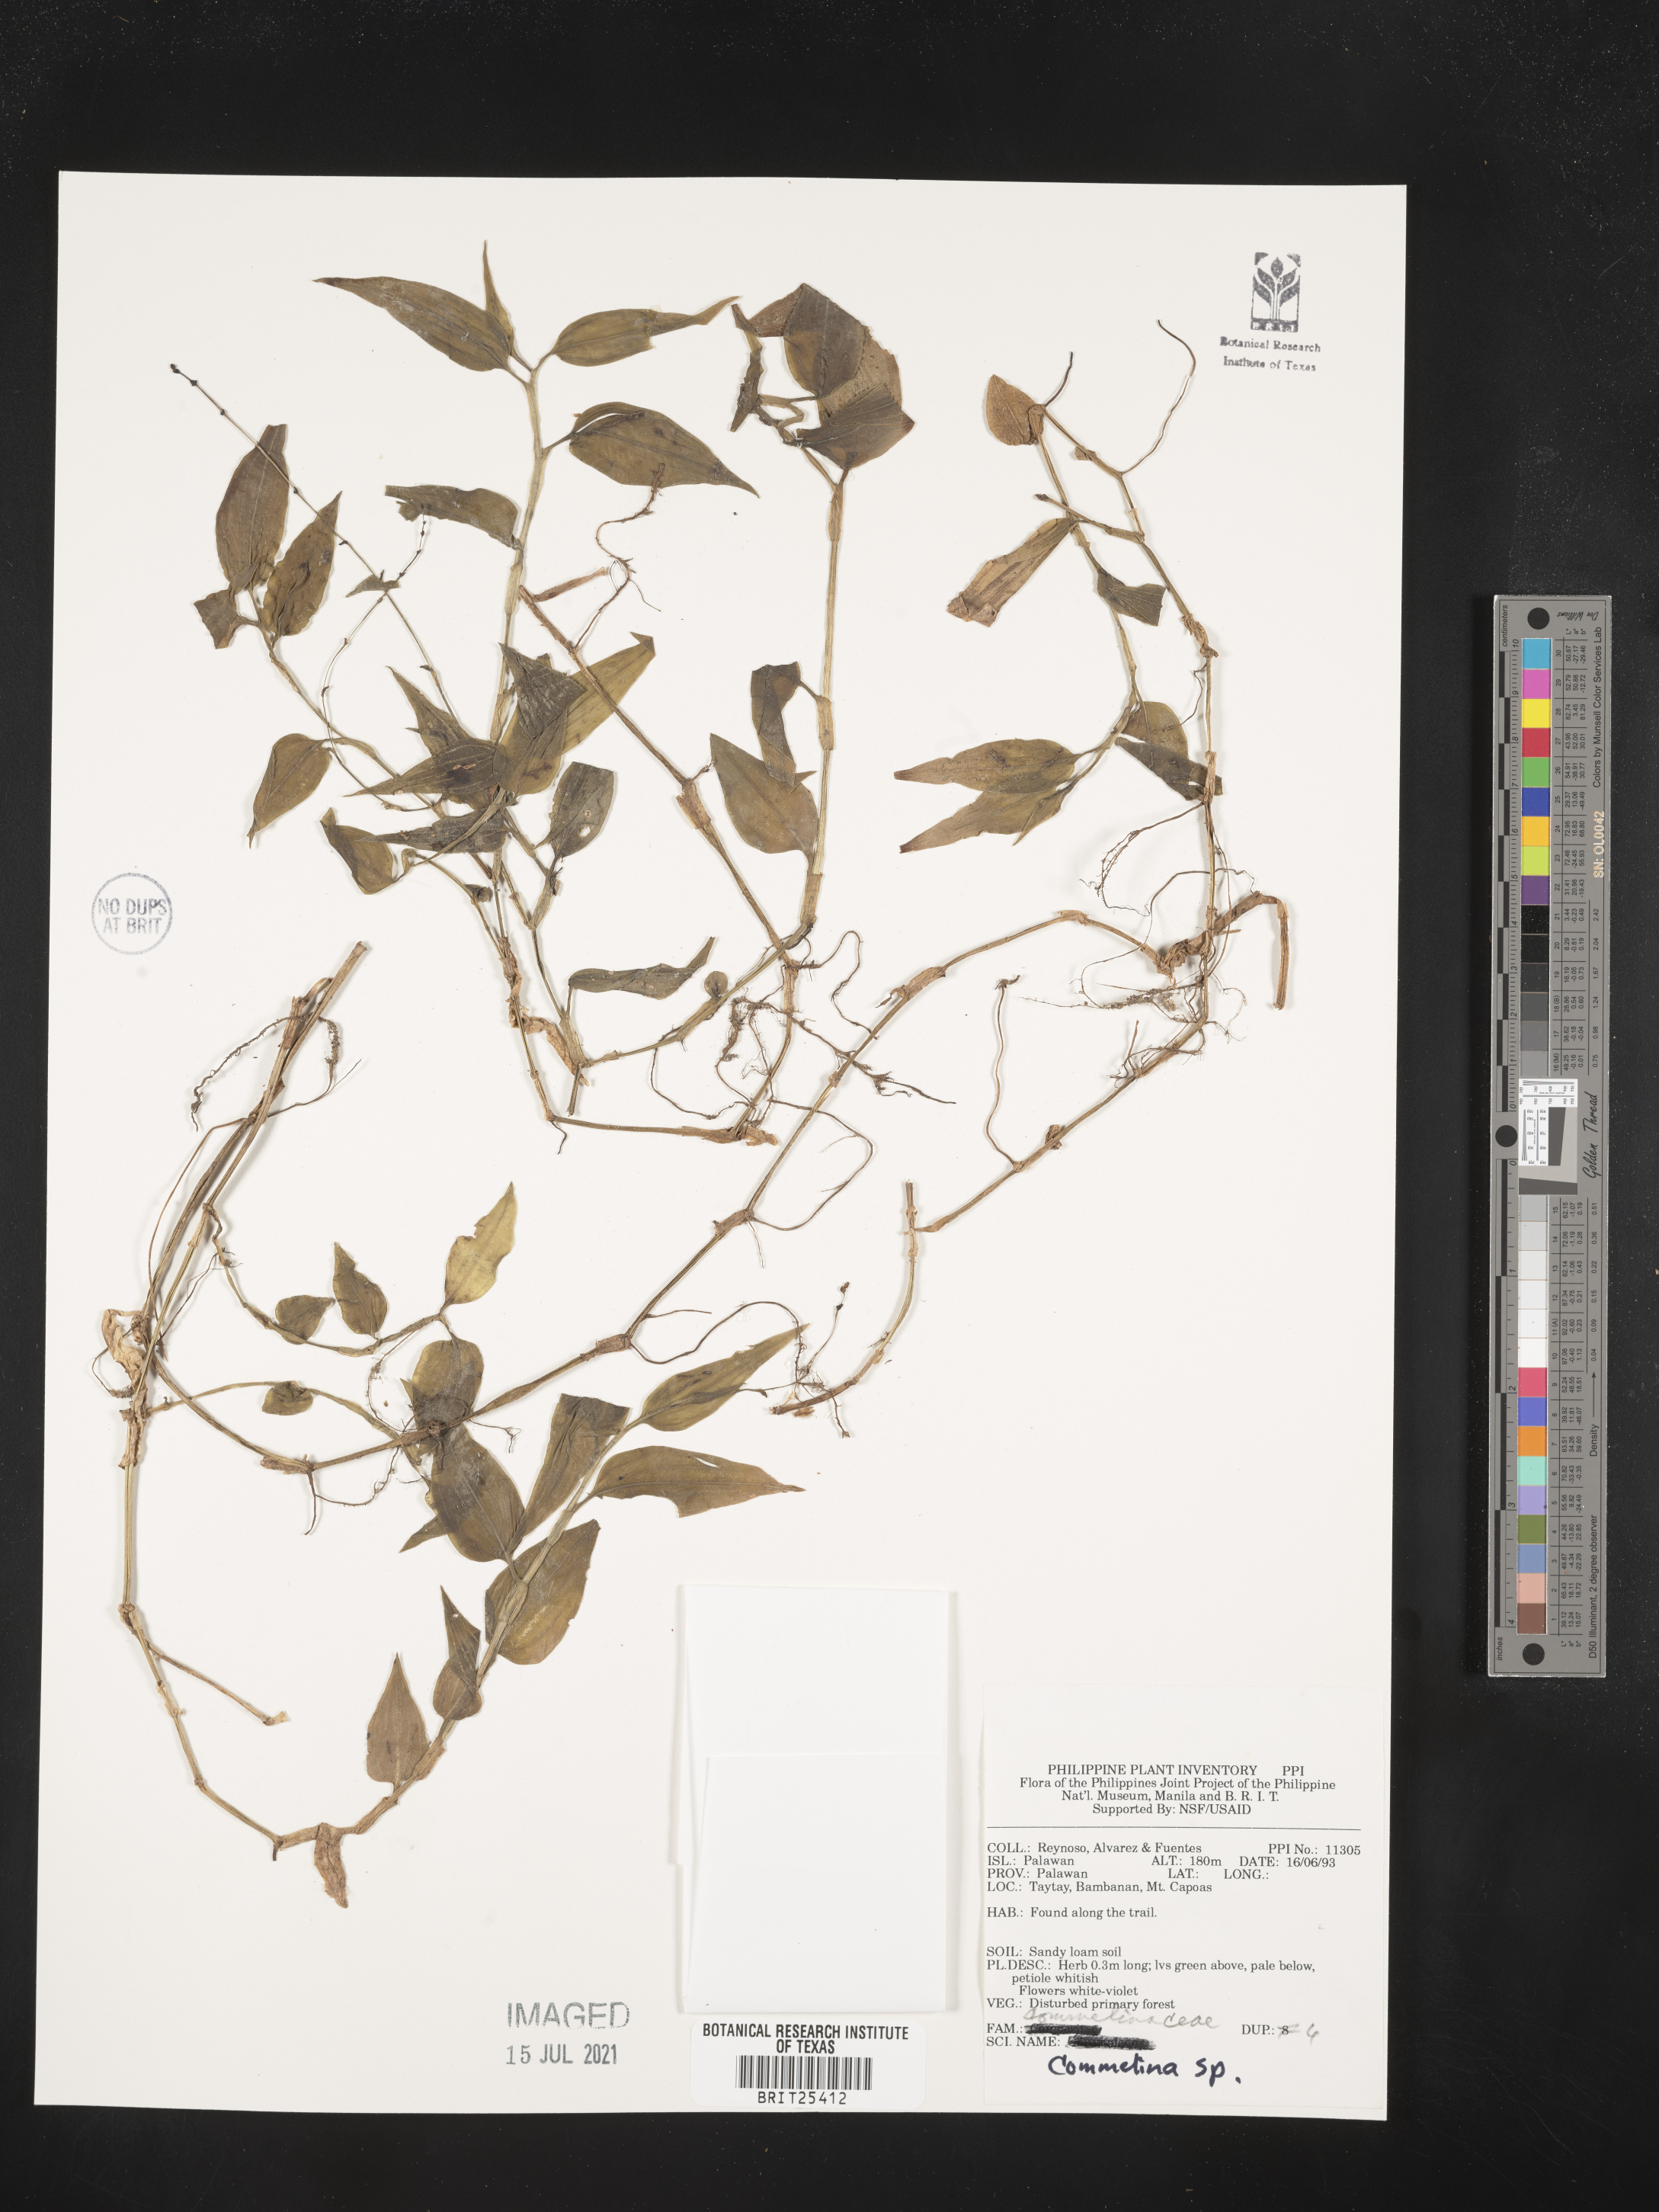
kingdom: Plantae
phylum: Tracheophyta
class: Liliopsida
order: Commelinales
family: Commelinaceae
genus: Commelina
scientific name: Commelina
